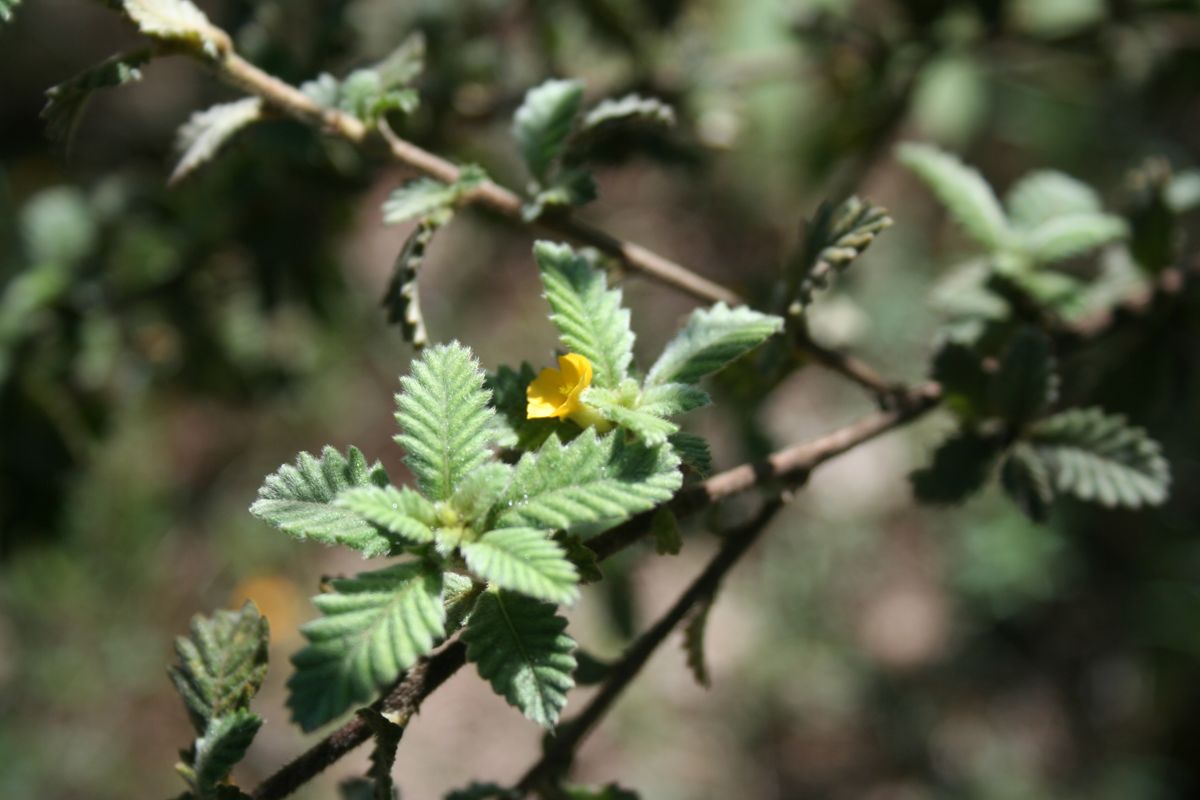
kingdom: Plantae
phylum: Tracheophyta
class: Magnoliopsida
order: Malpighiales
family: Turneraceae
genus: Turnera
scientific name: Turnera diffusa
